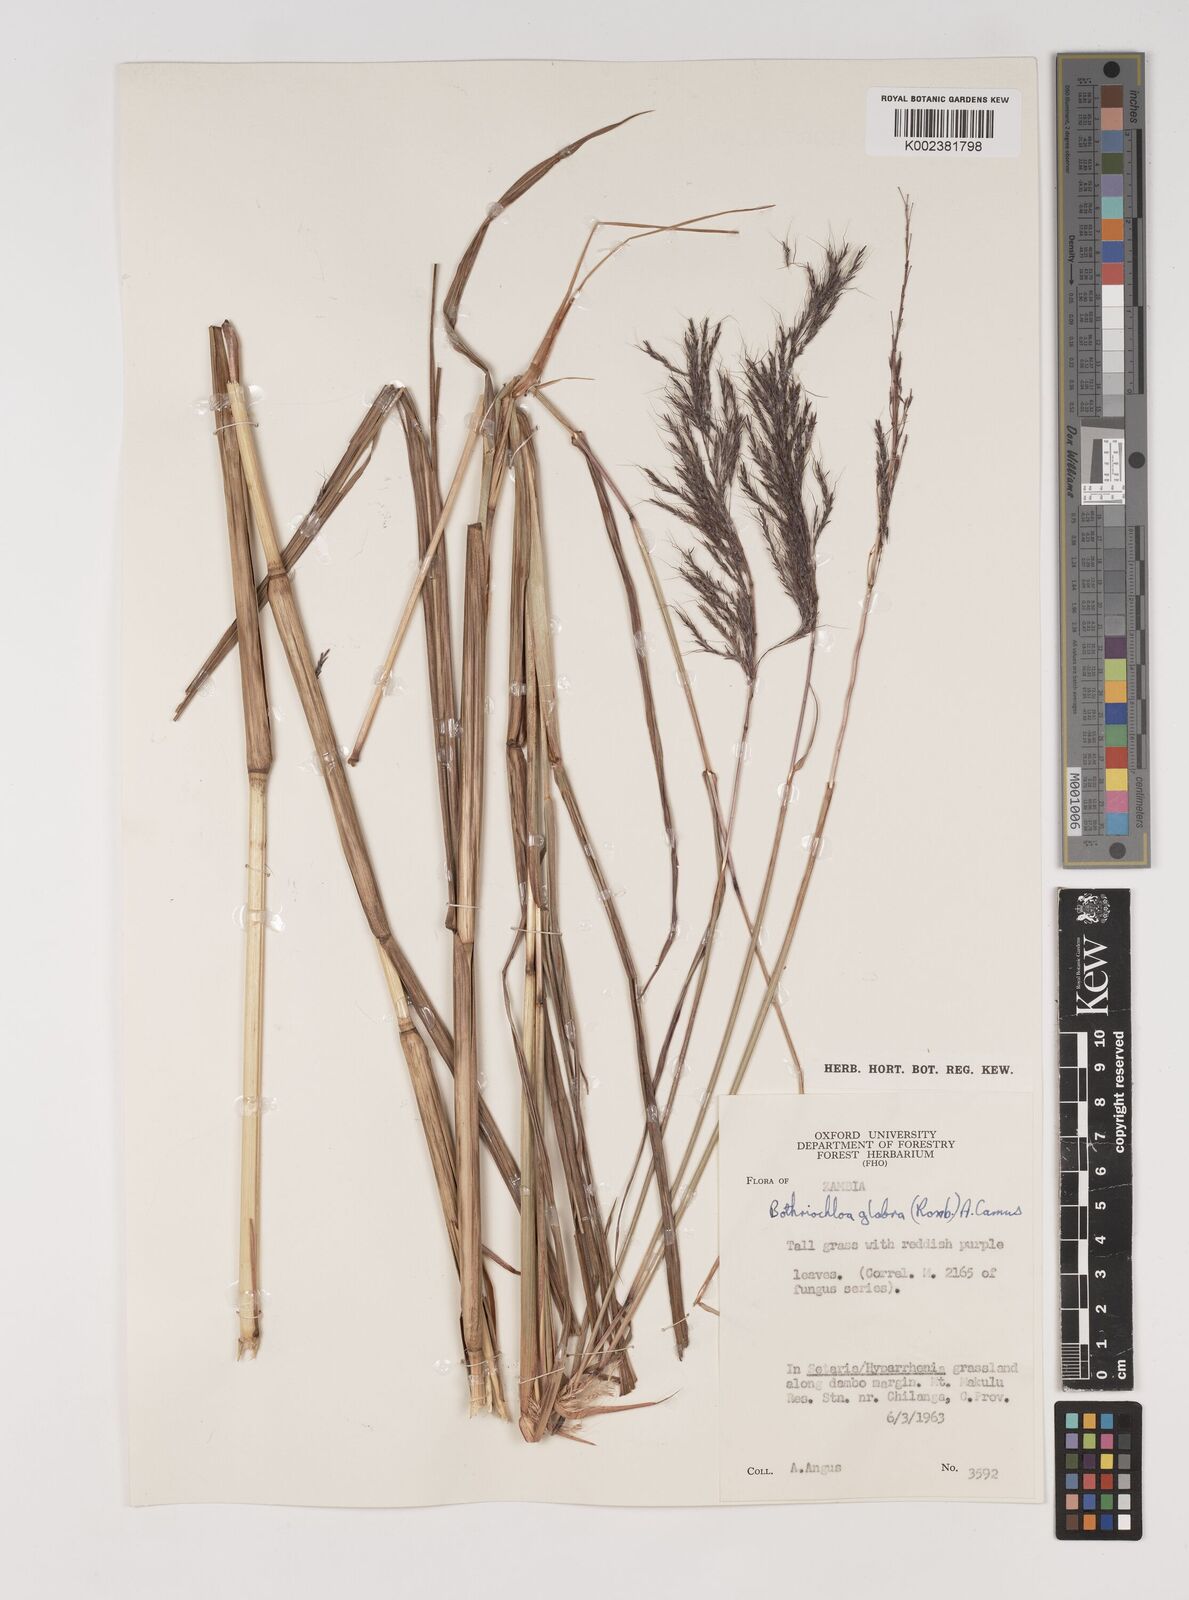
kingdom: Plantae
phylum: Tracheophyta
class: Liliopsida
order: Poales
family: Poaceae
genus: Bothriochloa
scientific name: Bothriochloa bladhii
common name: Caucasian bluestem
